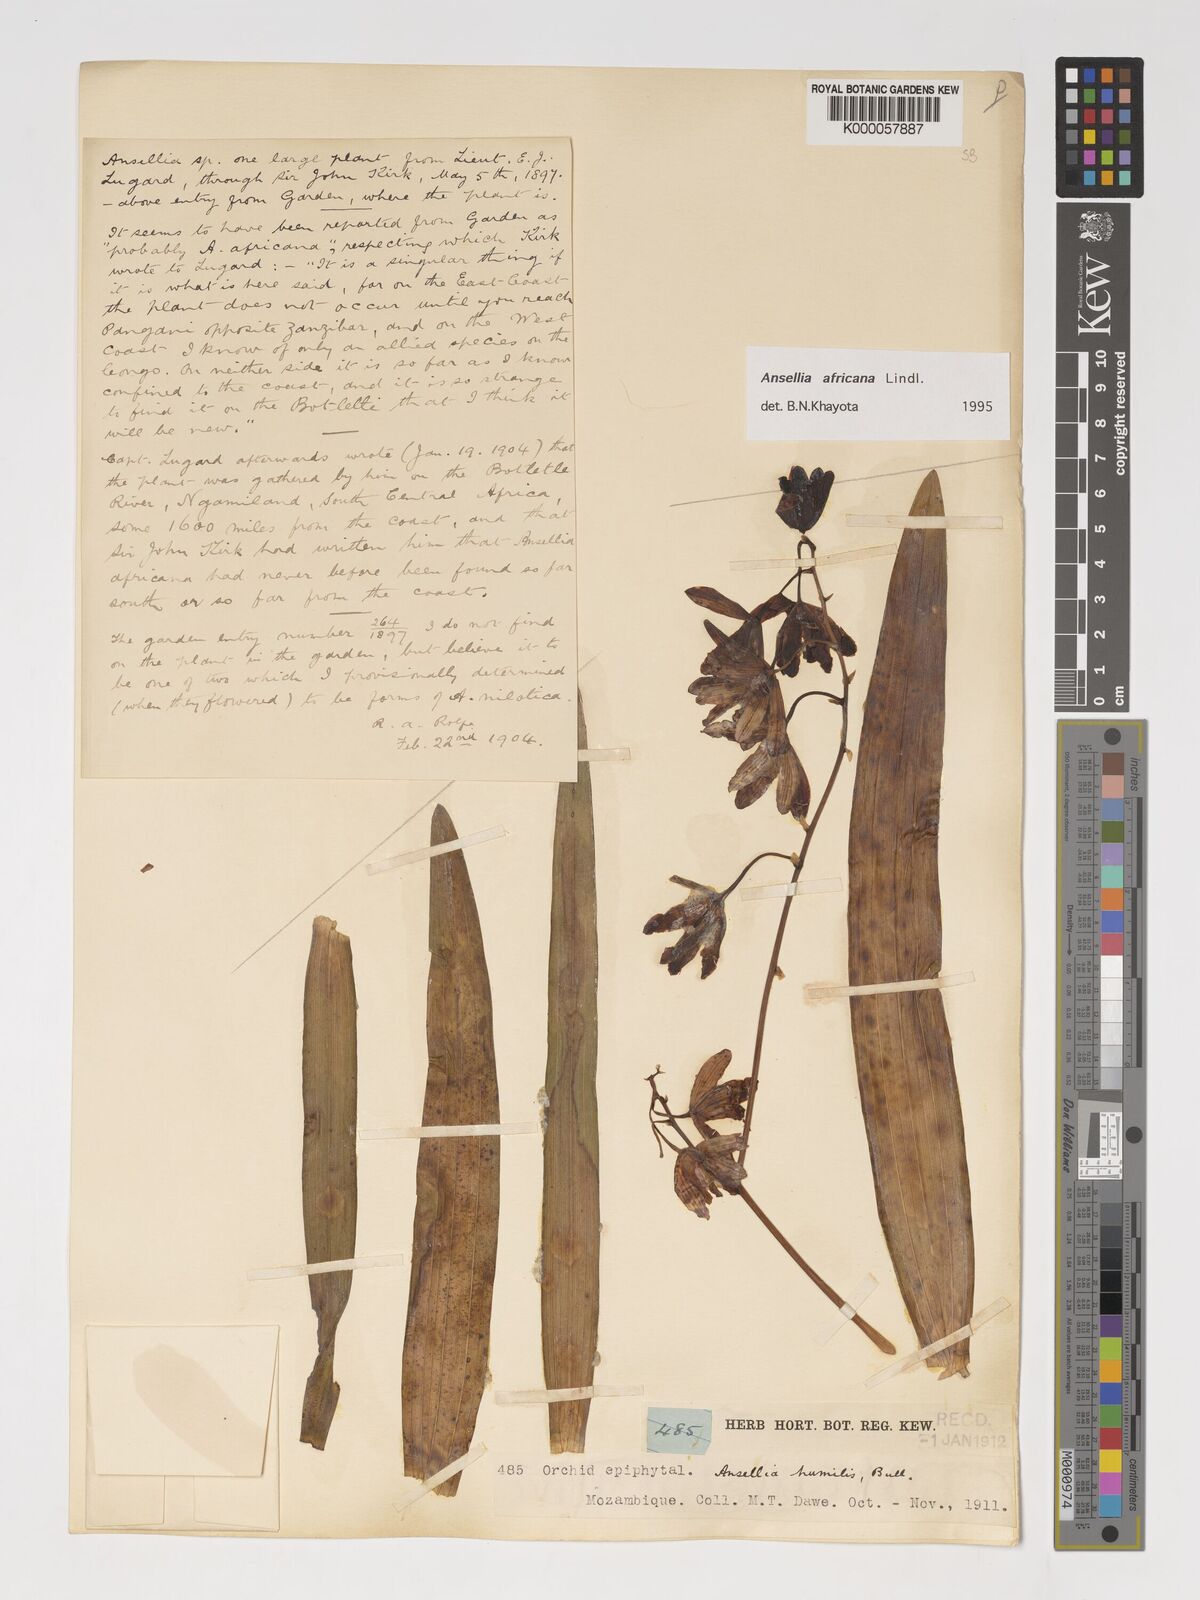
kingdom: Plantae
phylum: Tracheophyta
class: Liliopsida
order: Asparagales
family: Orchidaceae
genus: Ansellia
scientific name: Ansellia africana
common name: African ansellia
